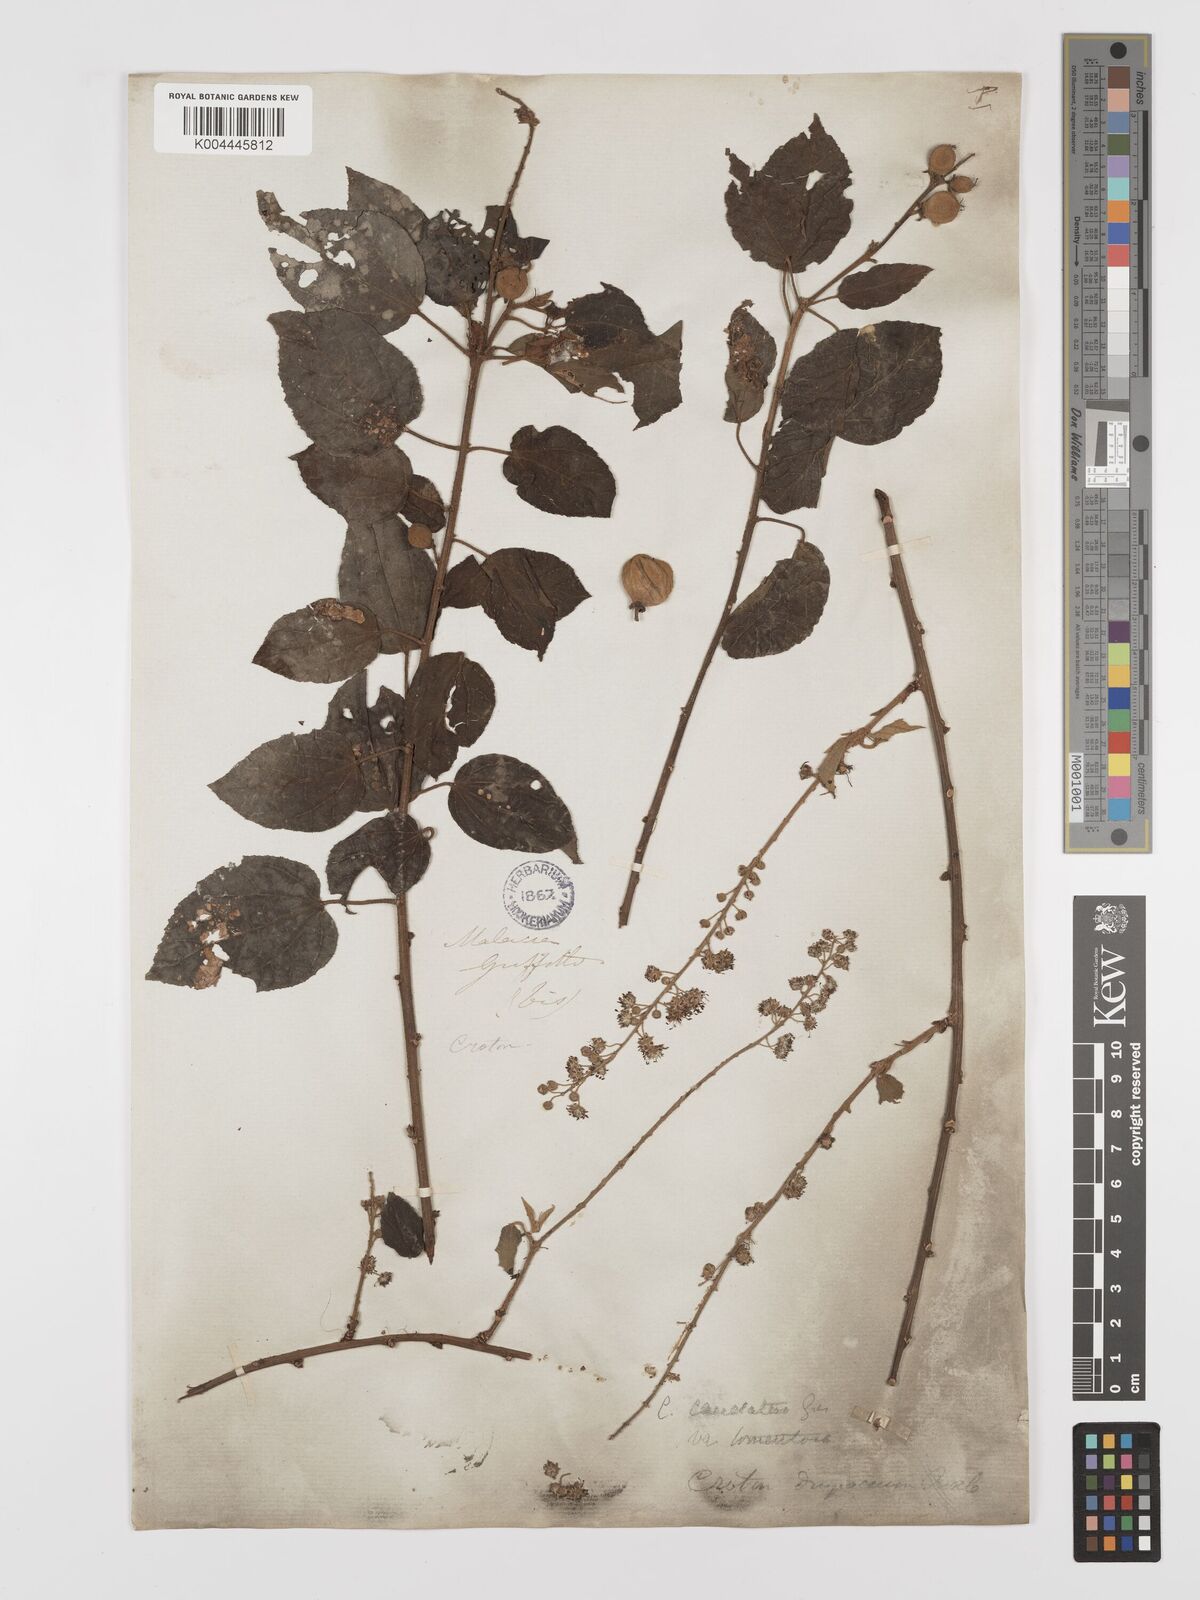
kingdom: Plantae
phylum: Tracheophyta
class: Magnoliopsida
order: Malpighiales
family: Euphorbiaceae
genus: Croton
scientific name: Croton caudatus
